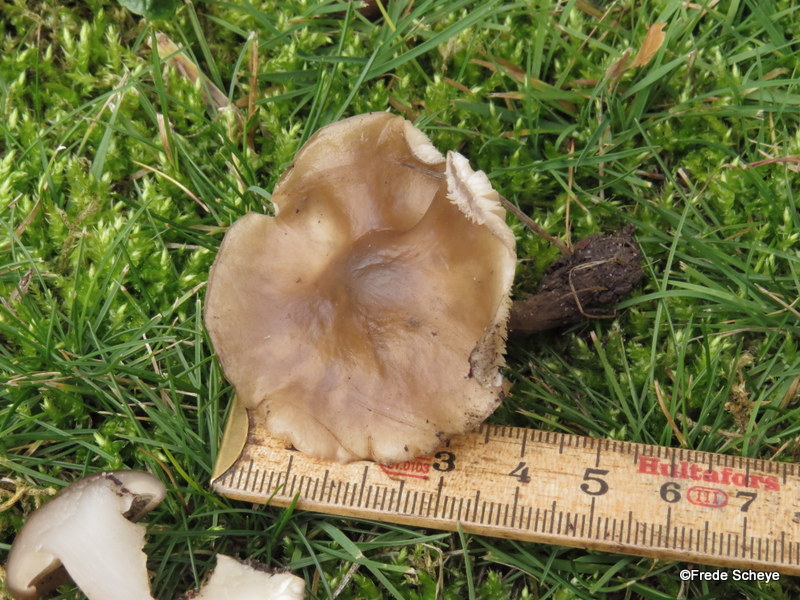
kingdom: Fungi
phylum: Basidiomycota
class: Agaricomycetes
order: Agaricales
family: Tricholomataceae
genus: Melanoleuca
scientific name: Melanoleuca polioleuca
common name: almindelig munkehat
